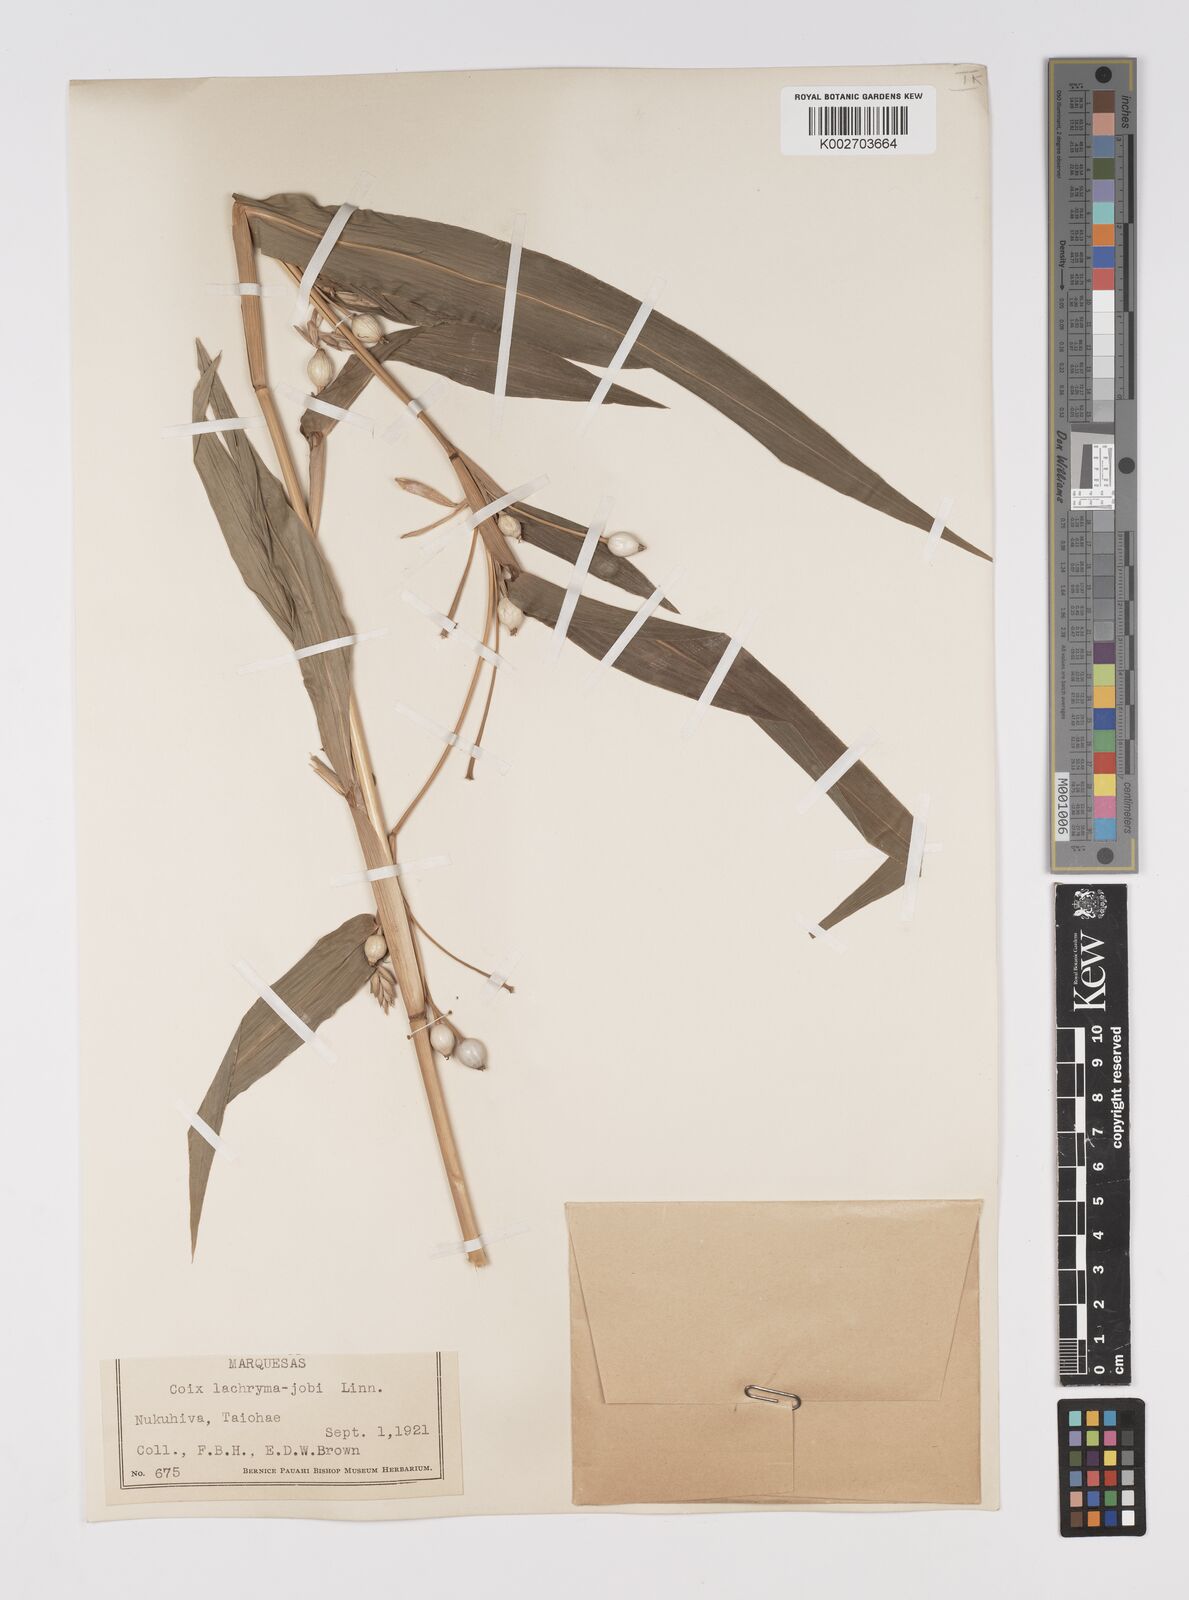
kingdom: Plantae
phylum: Tracheophyta
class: Liliopsida
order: Poales
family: Poaceae
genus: Coix
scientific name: Coix lacryma-jobi
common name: Job's tears
